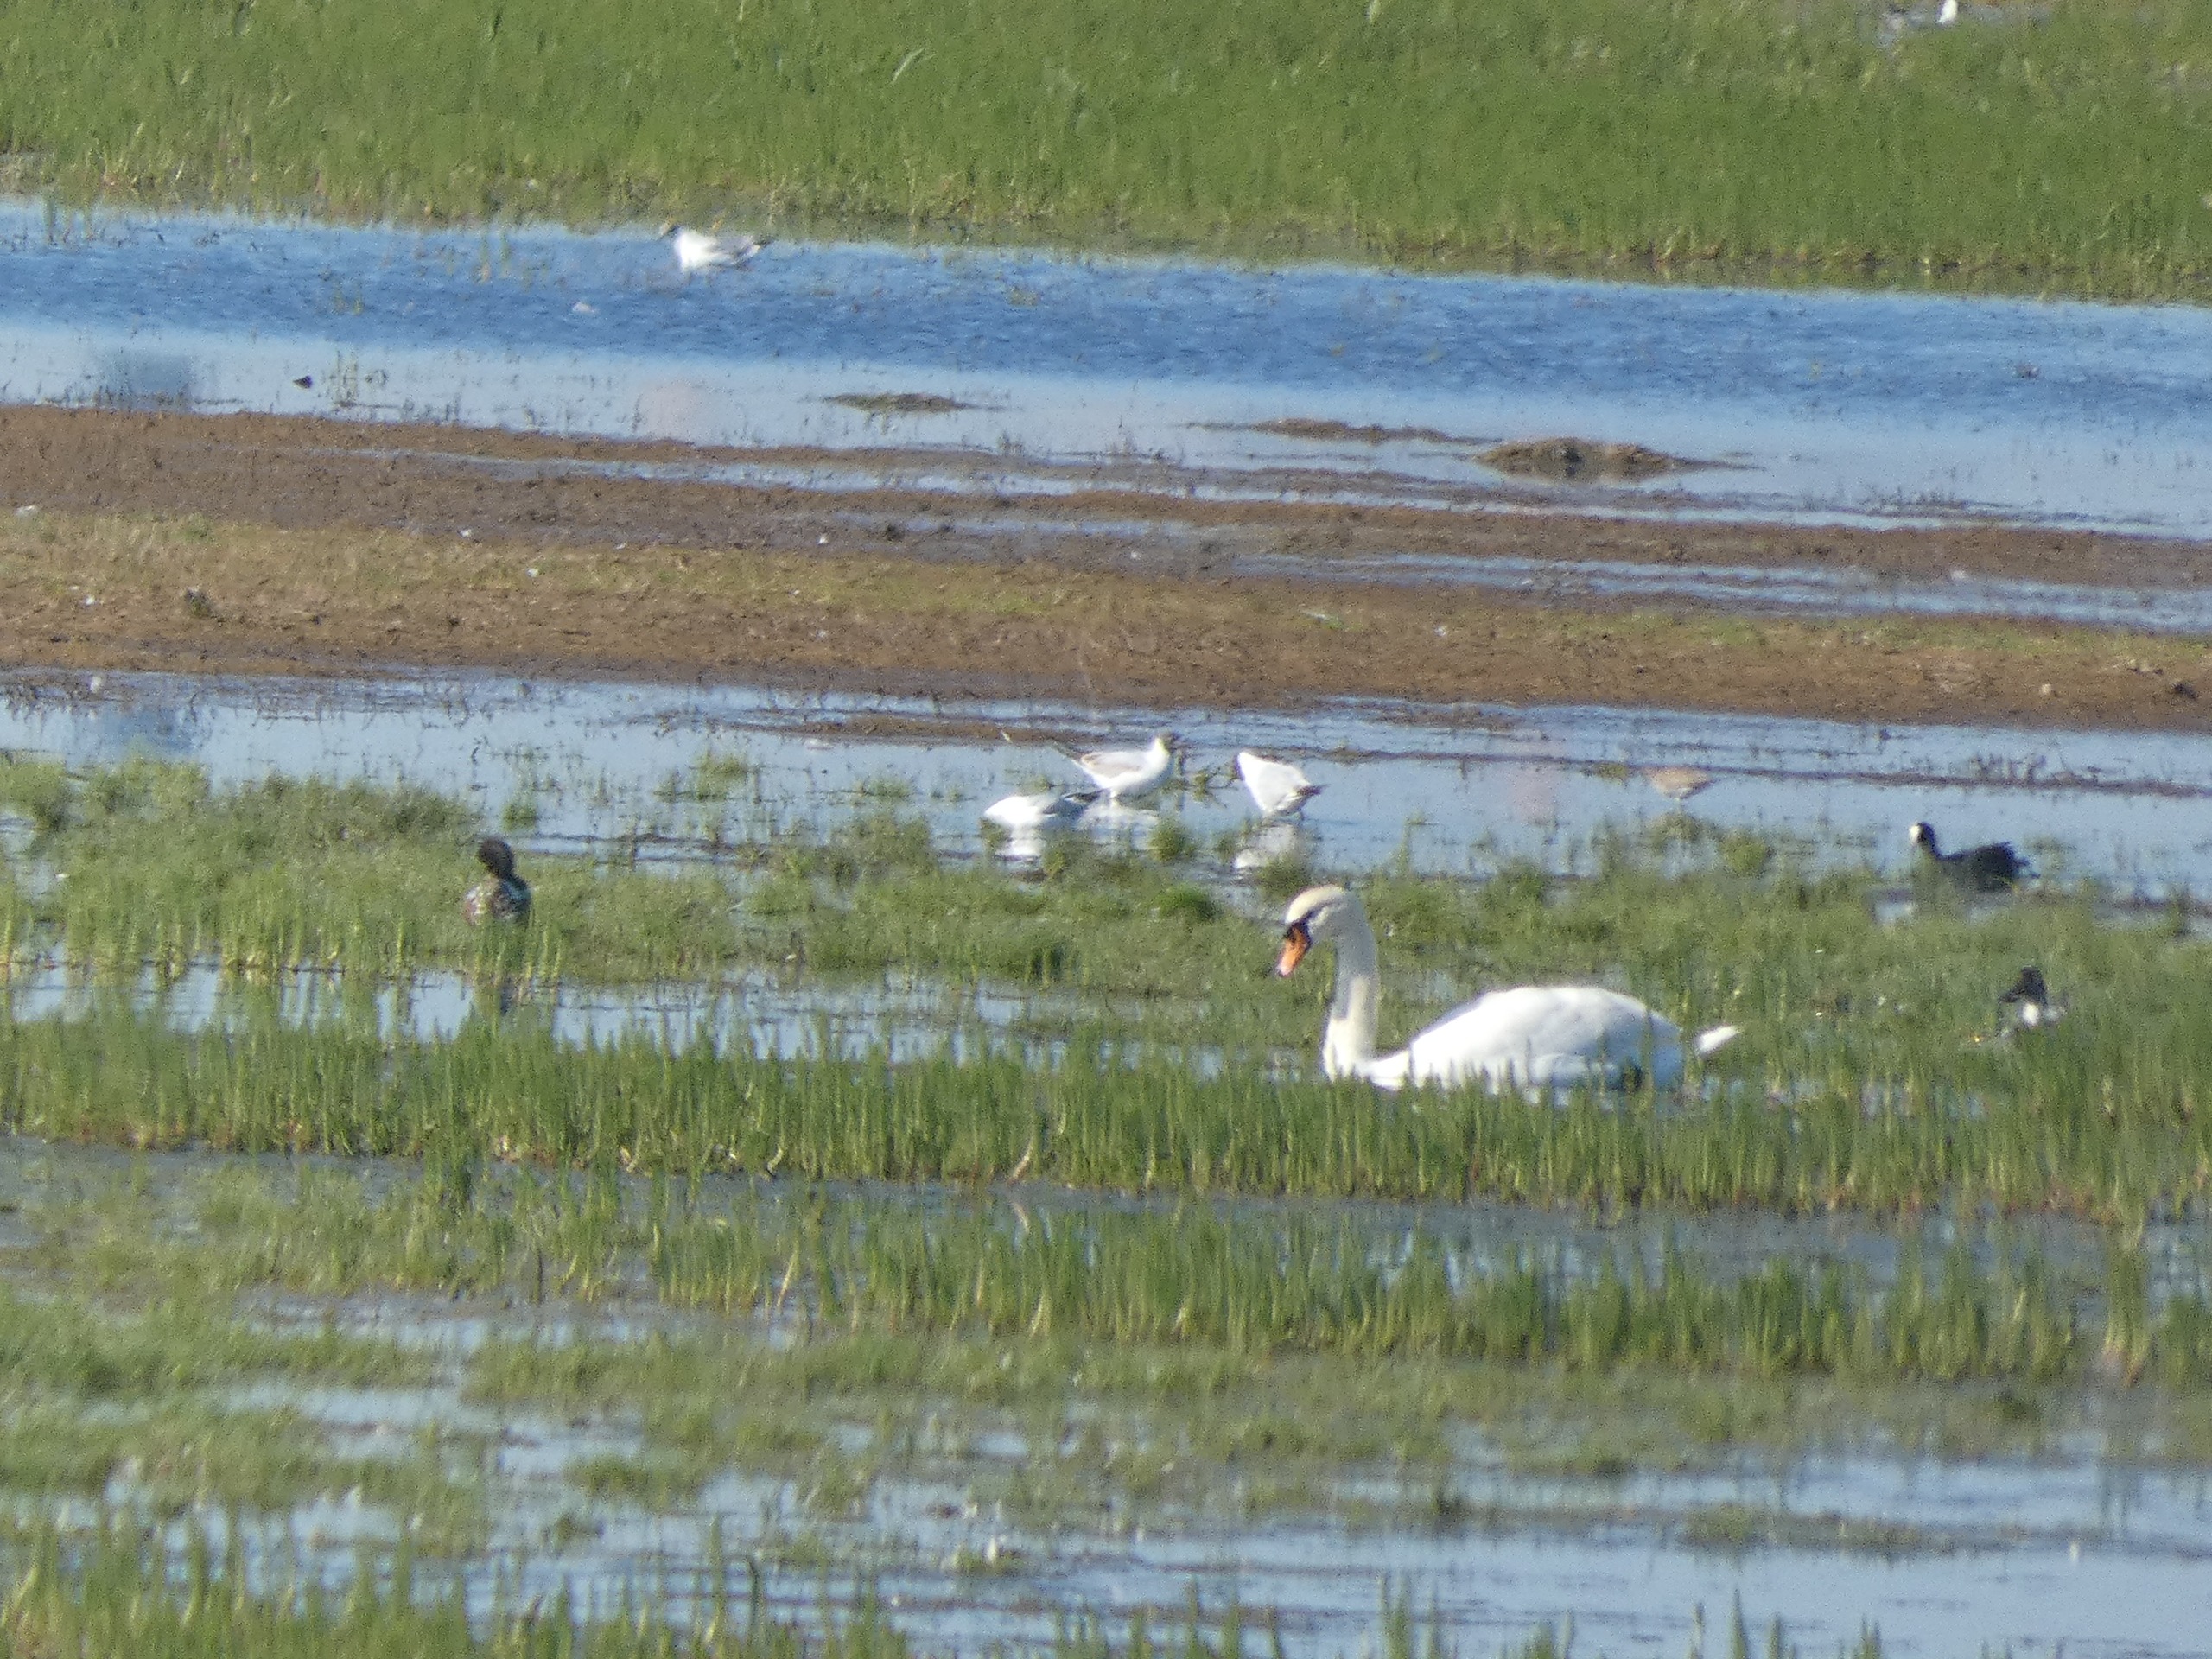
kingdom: Animalia
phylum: Chordata
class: Aves
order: Charadriiformes
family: Laridae
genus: Chroicocephalus
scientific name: Chroicocephalus ridibundus
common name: Hættemåge
